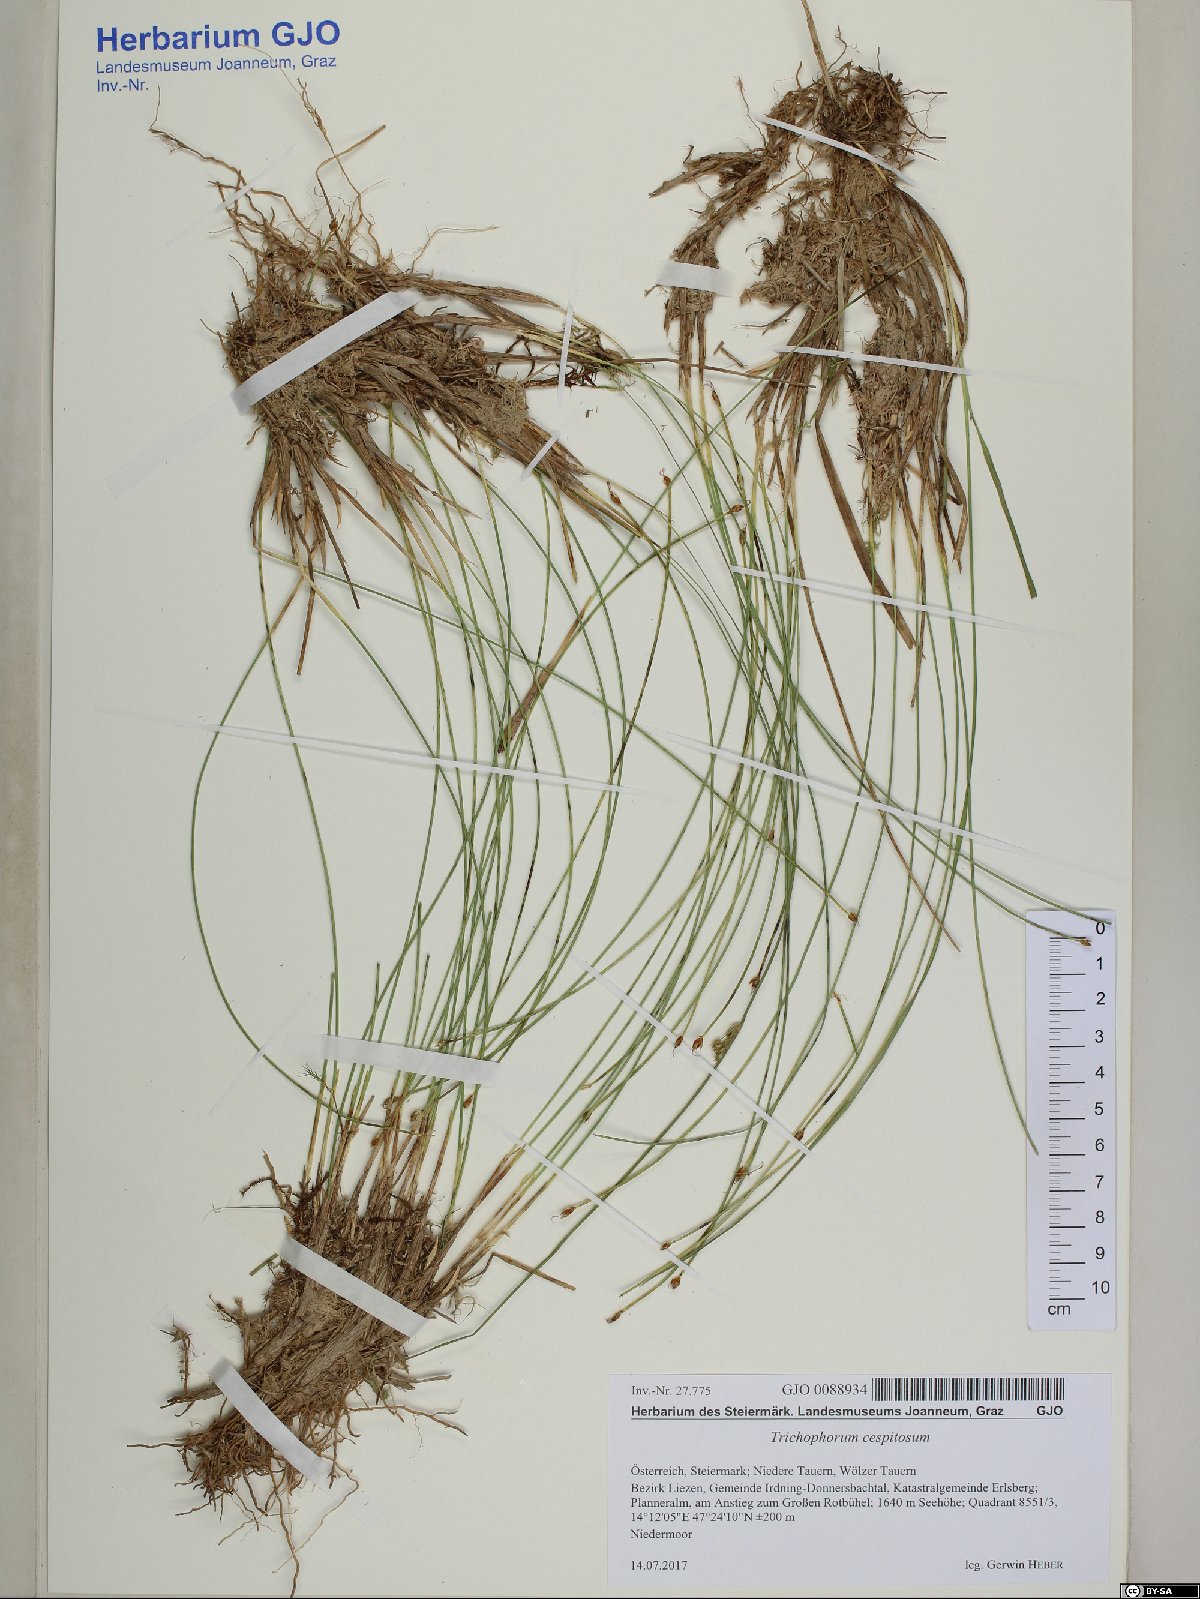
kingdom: Plantae
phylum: Tracheophyta
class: Liliopsida
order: Poales
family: Cyperaceae
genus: Trichophorum
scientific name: Trichophorum cespitosum
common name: Cespitose bulrush
